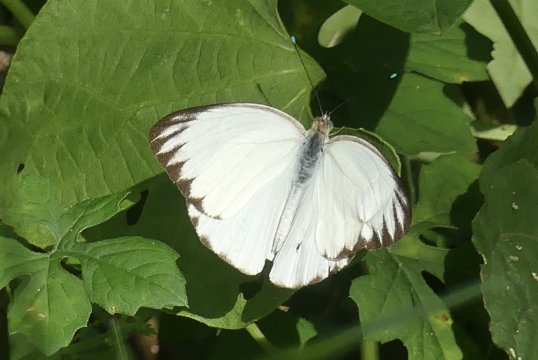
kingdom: Animalia
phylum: Arthropoda
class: Insecta
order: Lepidoptera
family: Pieridae
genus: Ascia
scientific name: Ascia monuste
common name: Great Southern White
